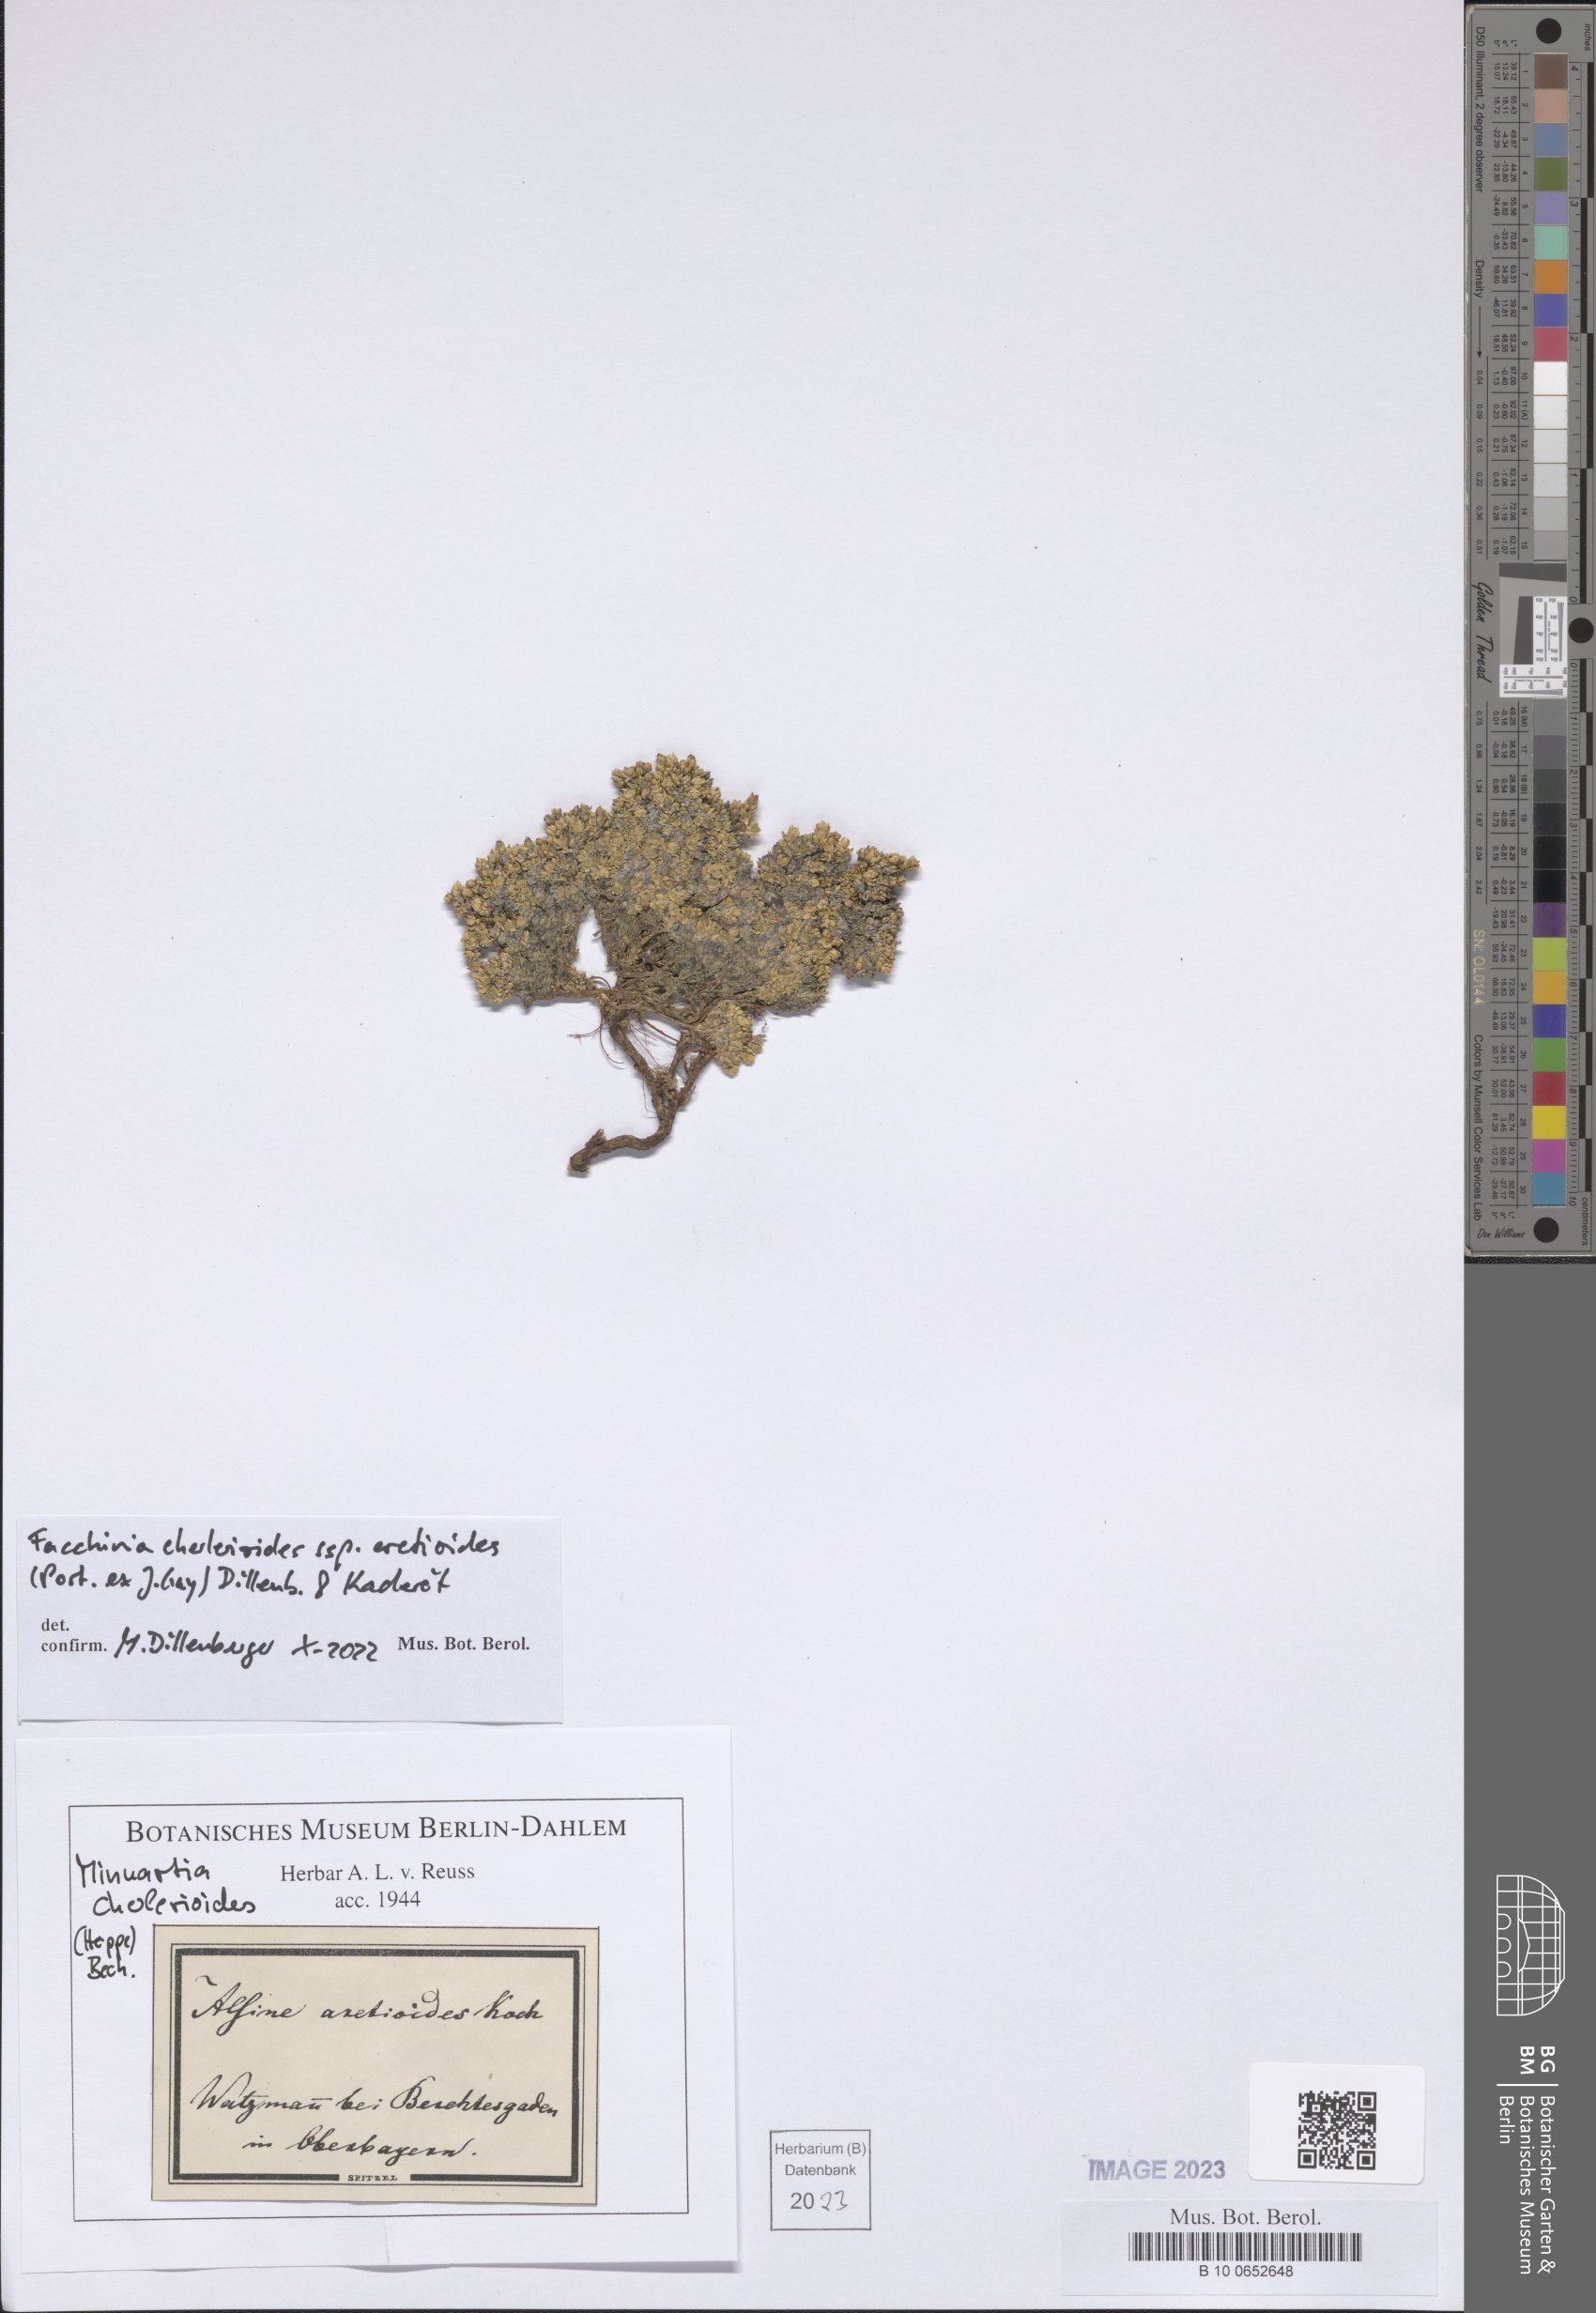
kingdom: Plantae
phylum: Tracheophyta
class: Magnoliopsida
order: Caryophyllales
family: Caryophyllaceae
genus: Facchinia
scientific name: Facchinia cherlerioides
